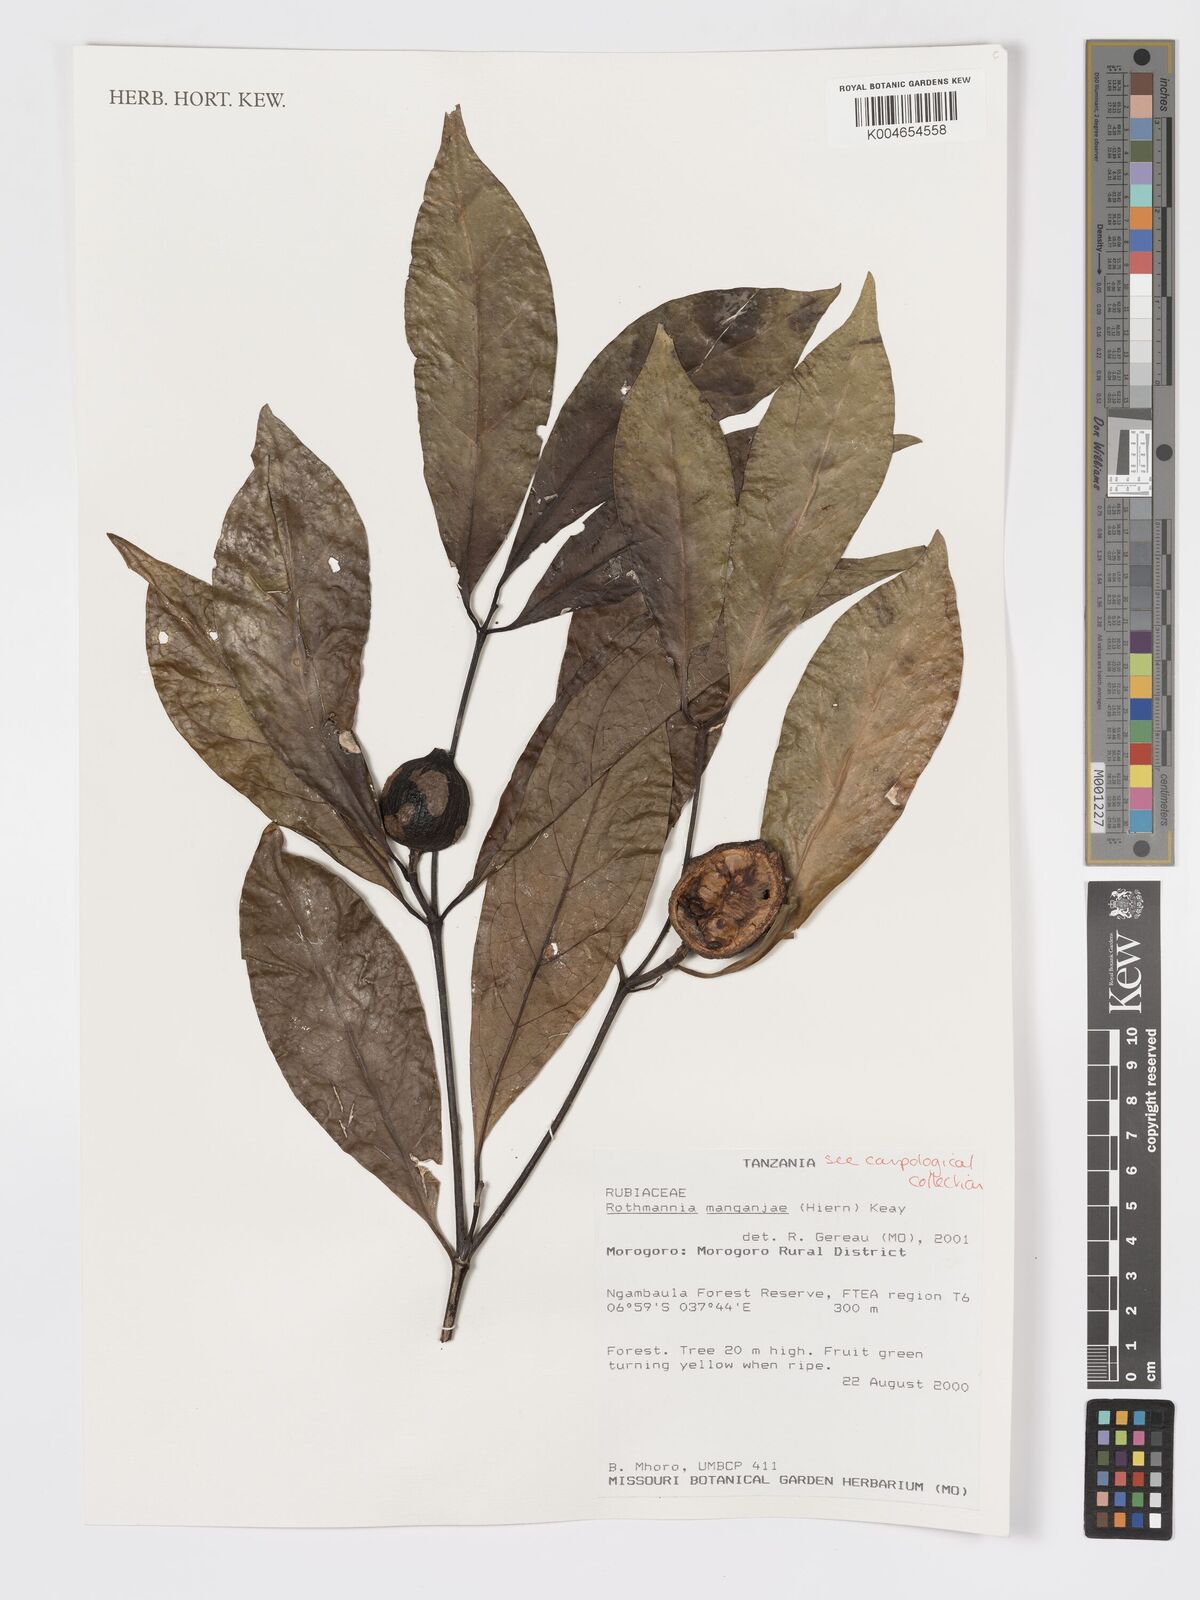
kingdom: Plantae
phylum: Tracheophyta
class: Magnoliopsida
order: Gentianales
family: Rubiaceae
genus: Rothmannia
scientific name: Rothmannia manganjae
